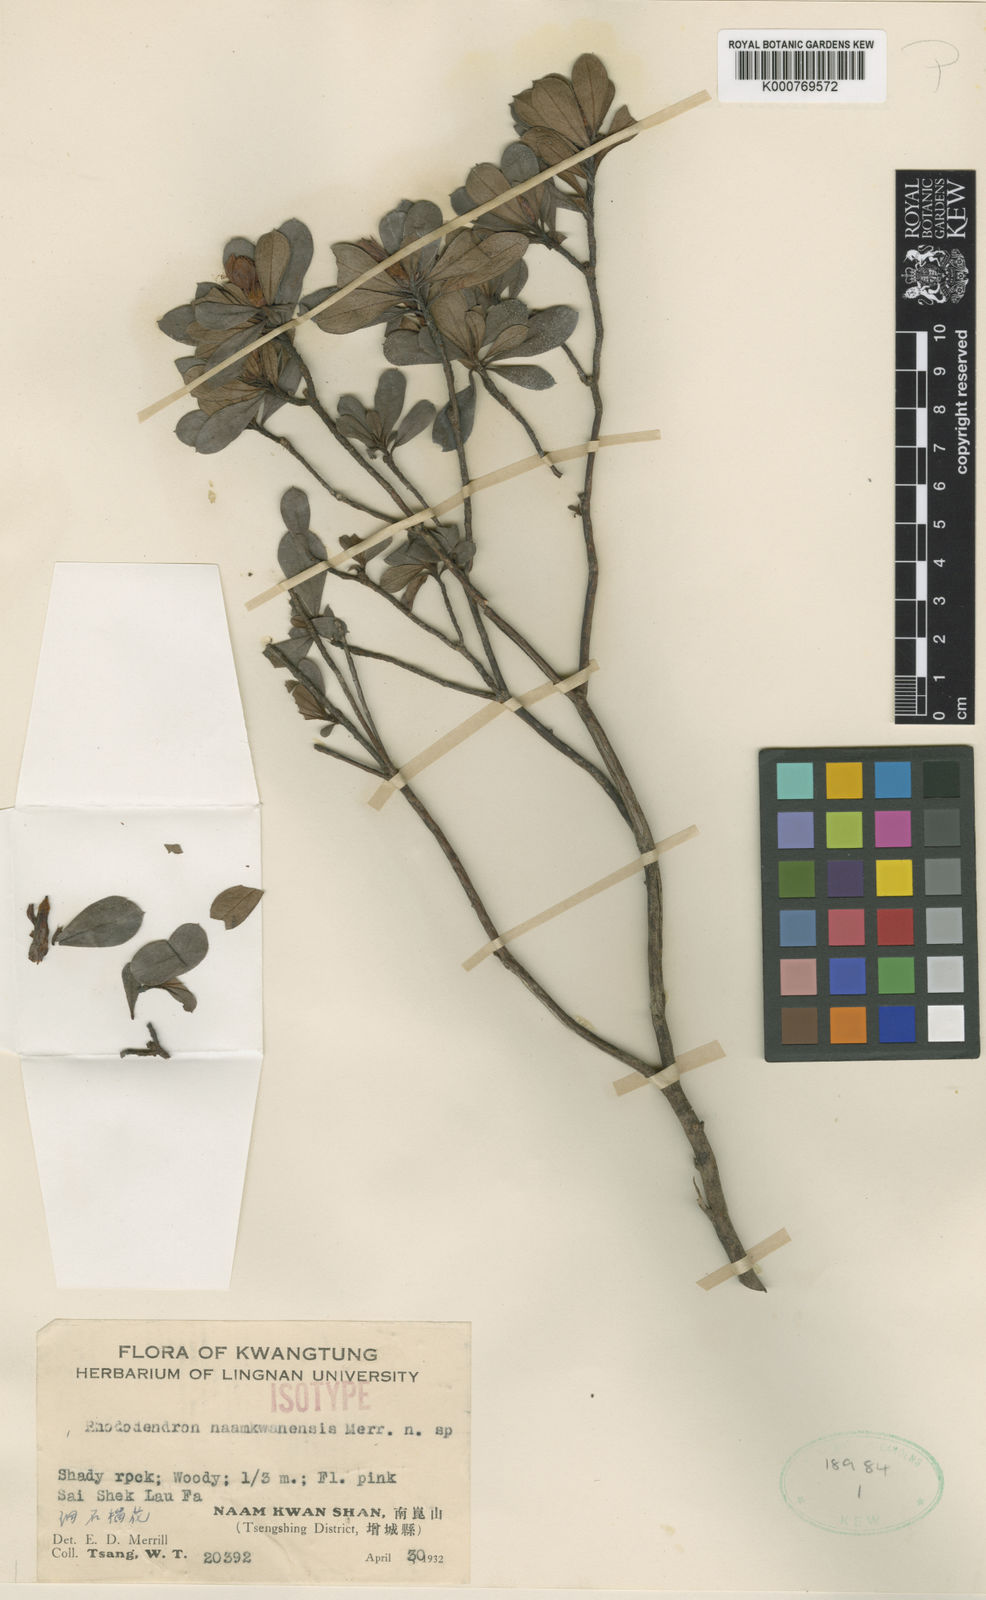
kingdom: Plantae
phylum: Tracheophyta
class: Magnoliopsida
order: Ericales
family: Ericaceae
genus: Rhododendron
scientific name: Rhododendron naamkwanense
